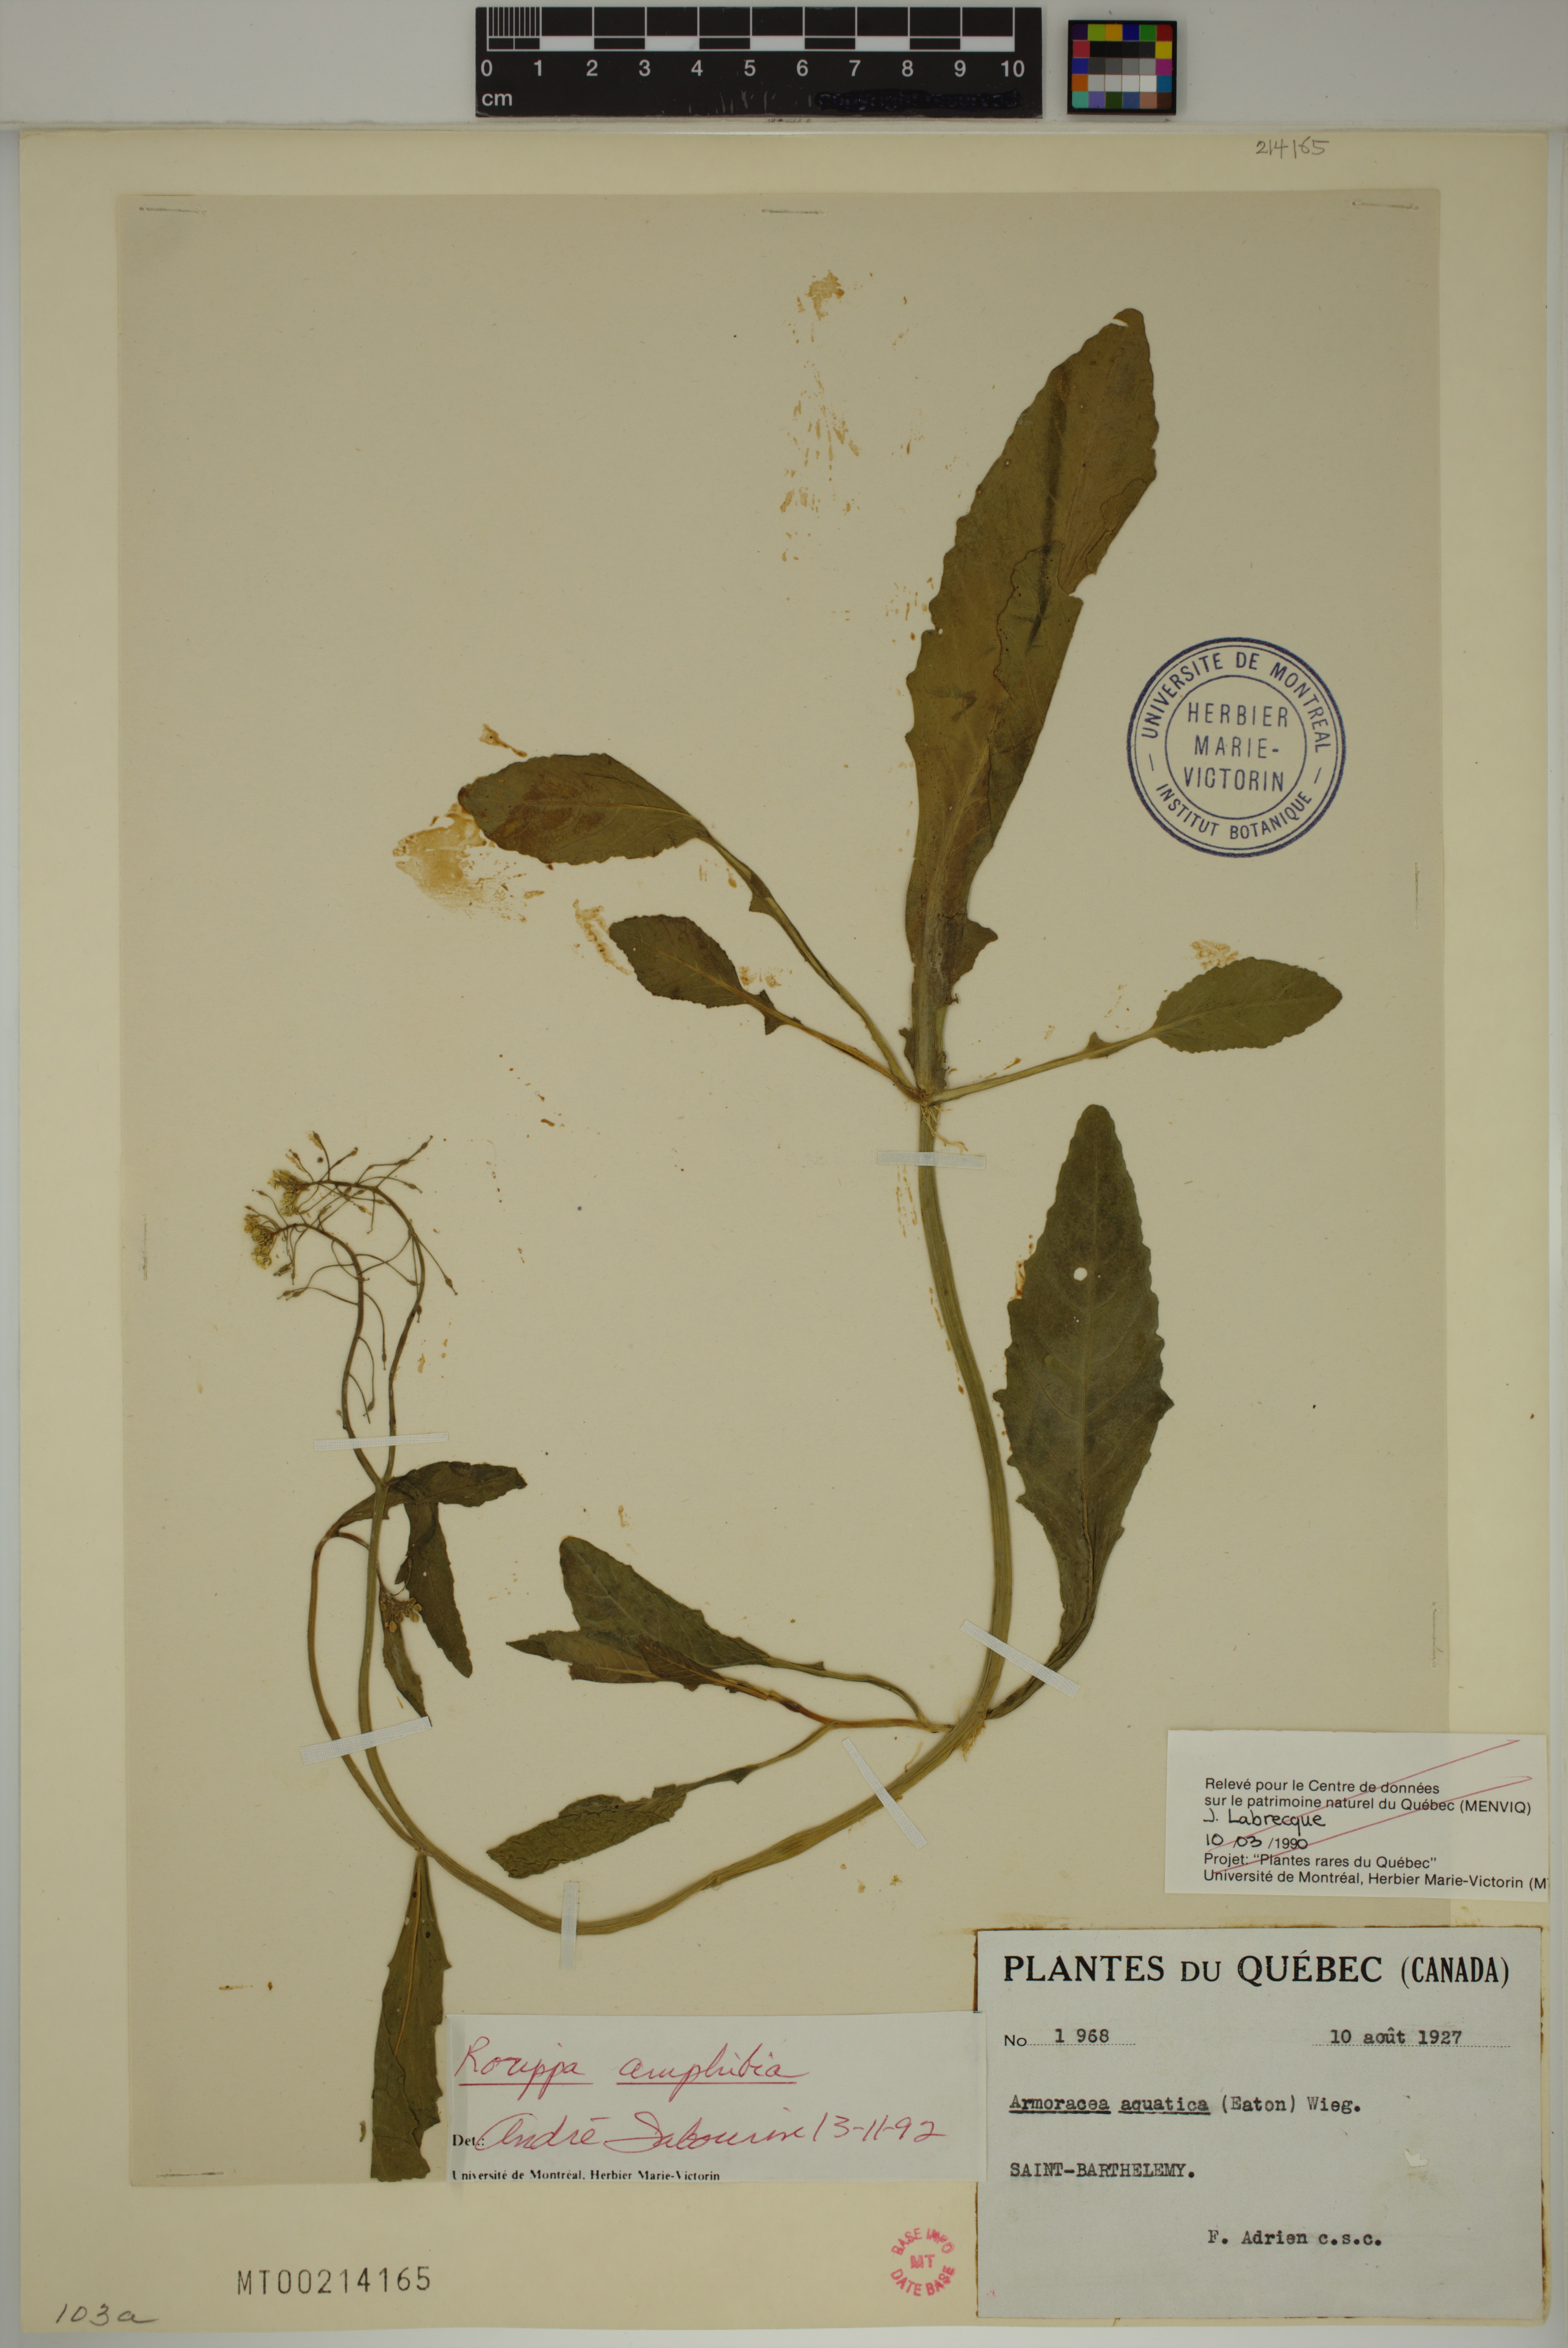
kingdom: Plantae
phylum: Tracheophyta
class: Magnoliopsida
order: Brassicales
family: Brassicaceae
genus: Rorippa
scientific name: Rorippa amphibia
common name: Great yellow-cress
